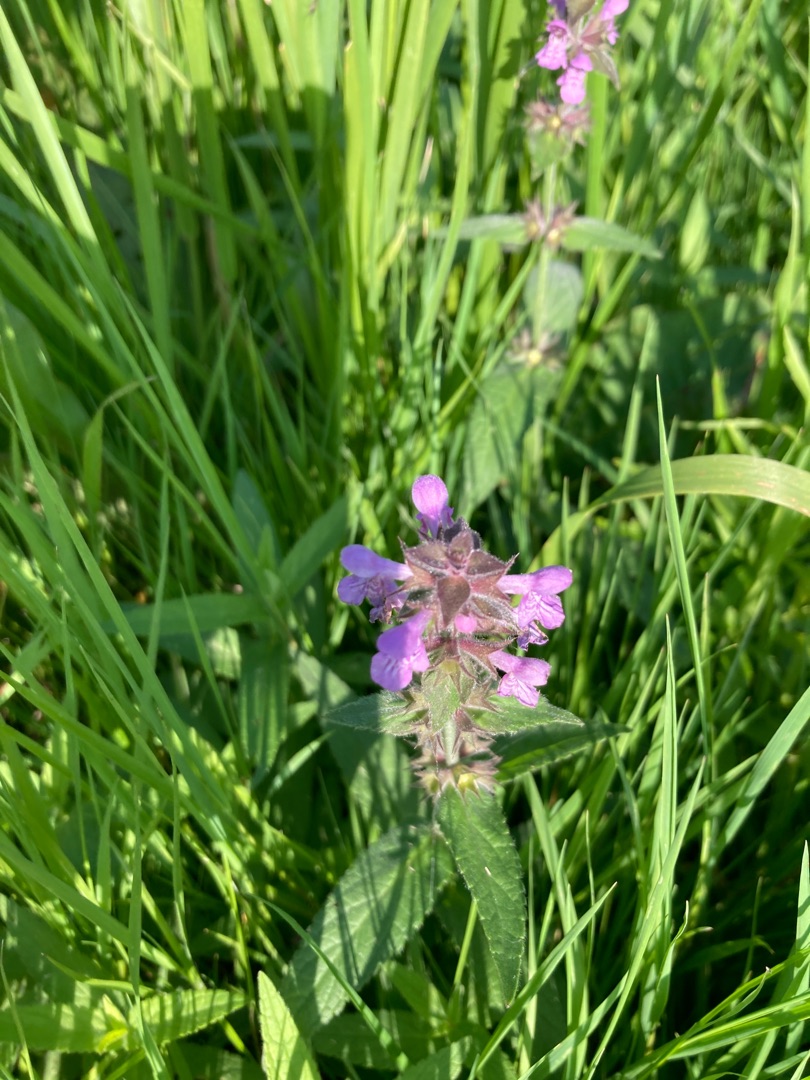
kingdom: Plantae
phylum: Tracheophyta
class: Magnoliopsida
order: Lamiales
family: Lamiaceae
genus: Stachys
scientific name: Stachys palustris
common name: Kær-galtetand
